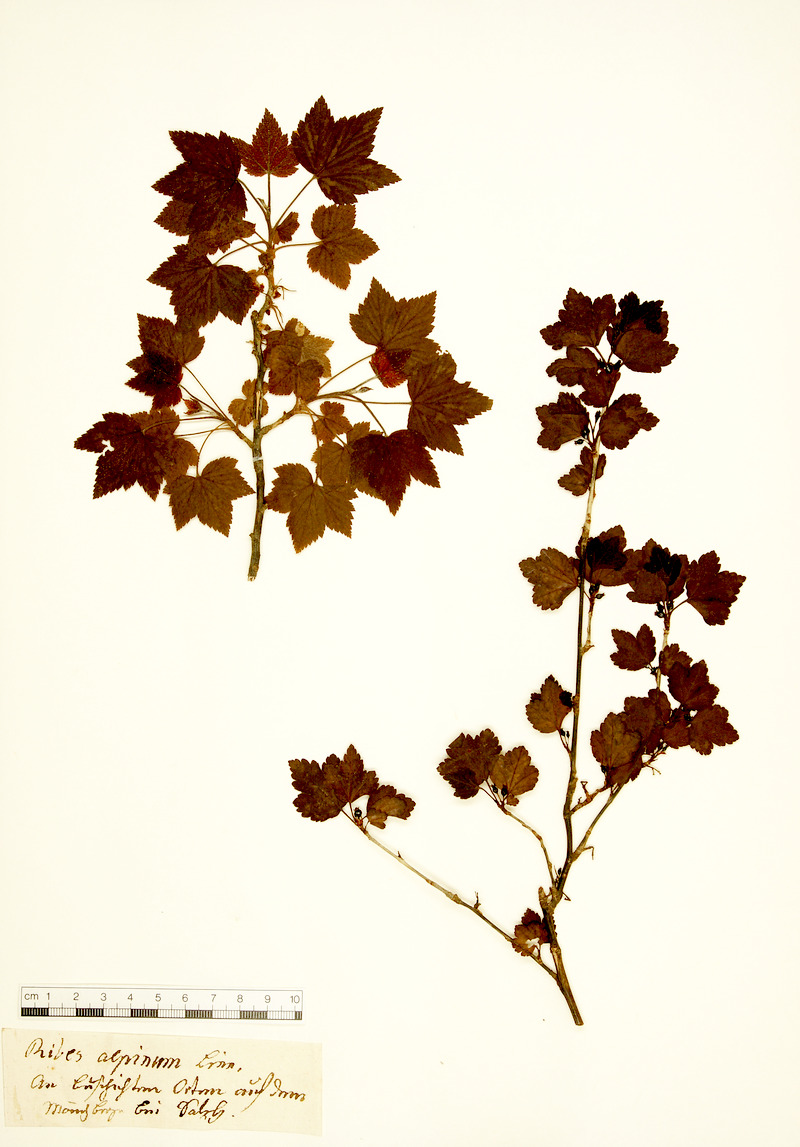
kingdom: Plantae
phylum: Tracheophyta
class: Magnoliopsida
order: Saxifragales
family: Grossulariaceae
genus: Ribes
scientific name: Ribes alpinum
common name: Alpine currant
